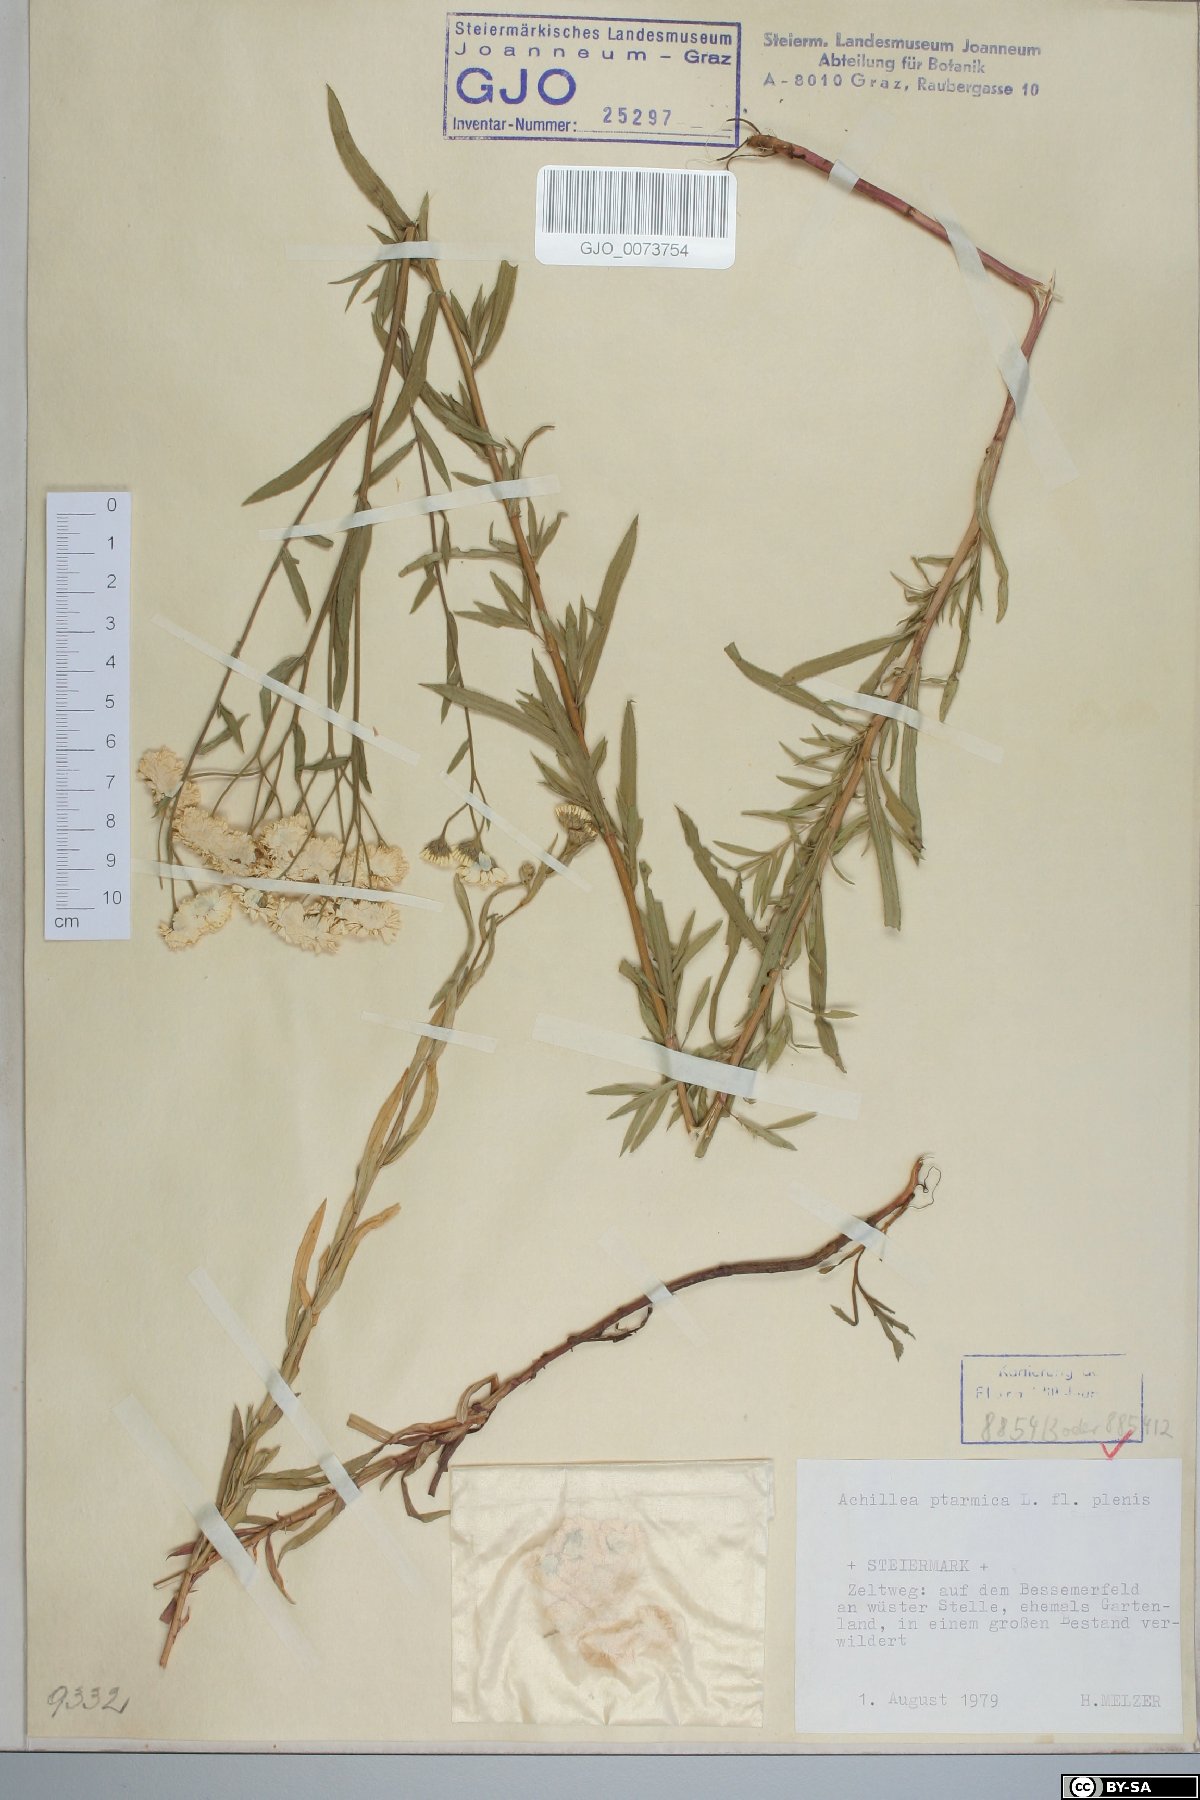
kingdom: Plantae
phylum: Tracheophyta
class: Magnoliopsida
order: Asterales
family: Asteraceae
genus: Achillea
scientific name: Achillea ptarmica
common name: Sneezeweed
